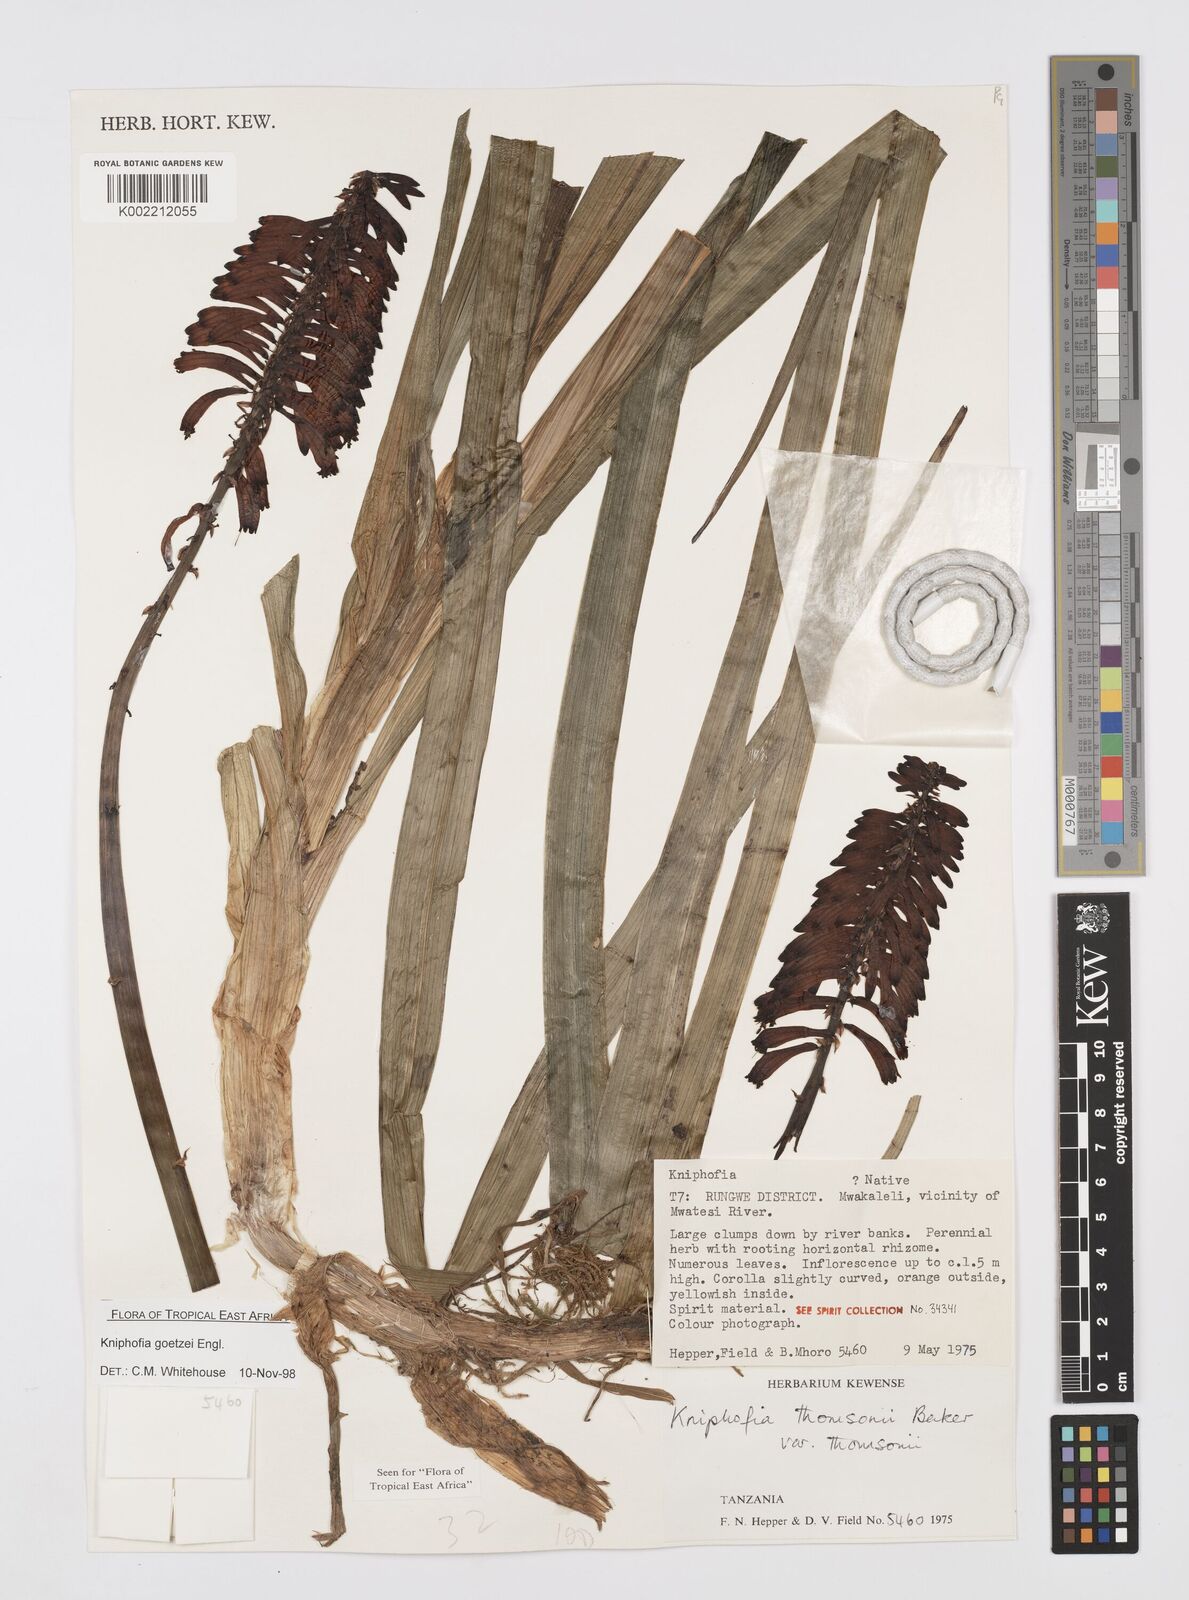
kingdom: Plantae
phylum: Tracheophyta
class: Liliopsida
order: Asparagales
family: Asphodelaceae
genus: Kniphofia
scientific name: Kniphofia goetzei
